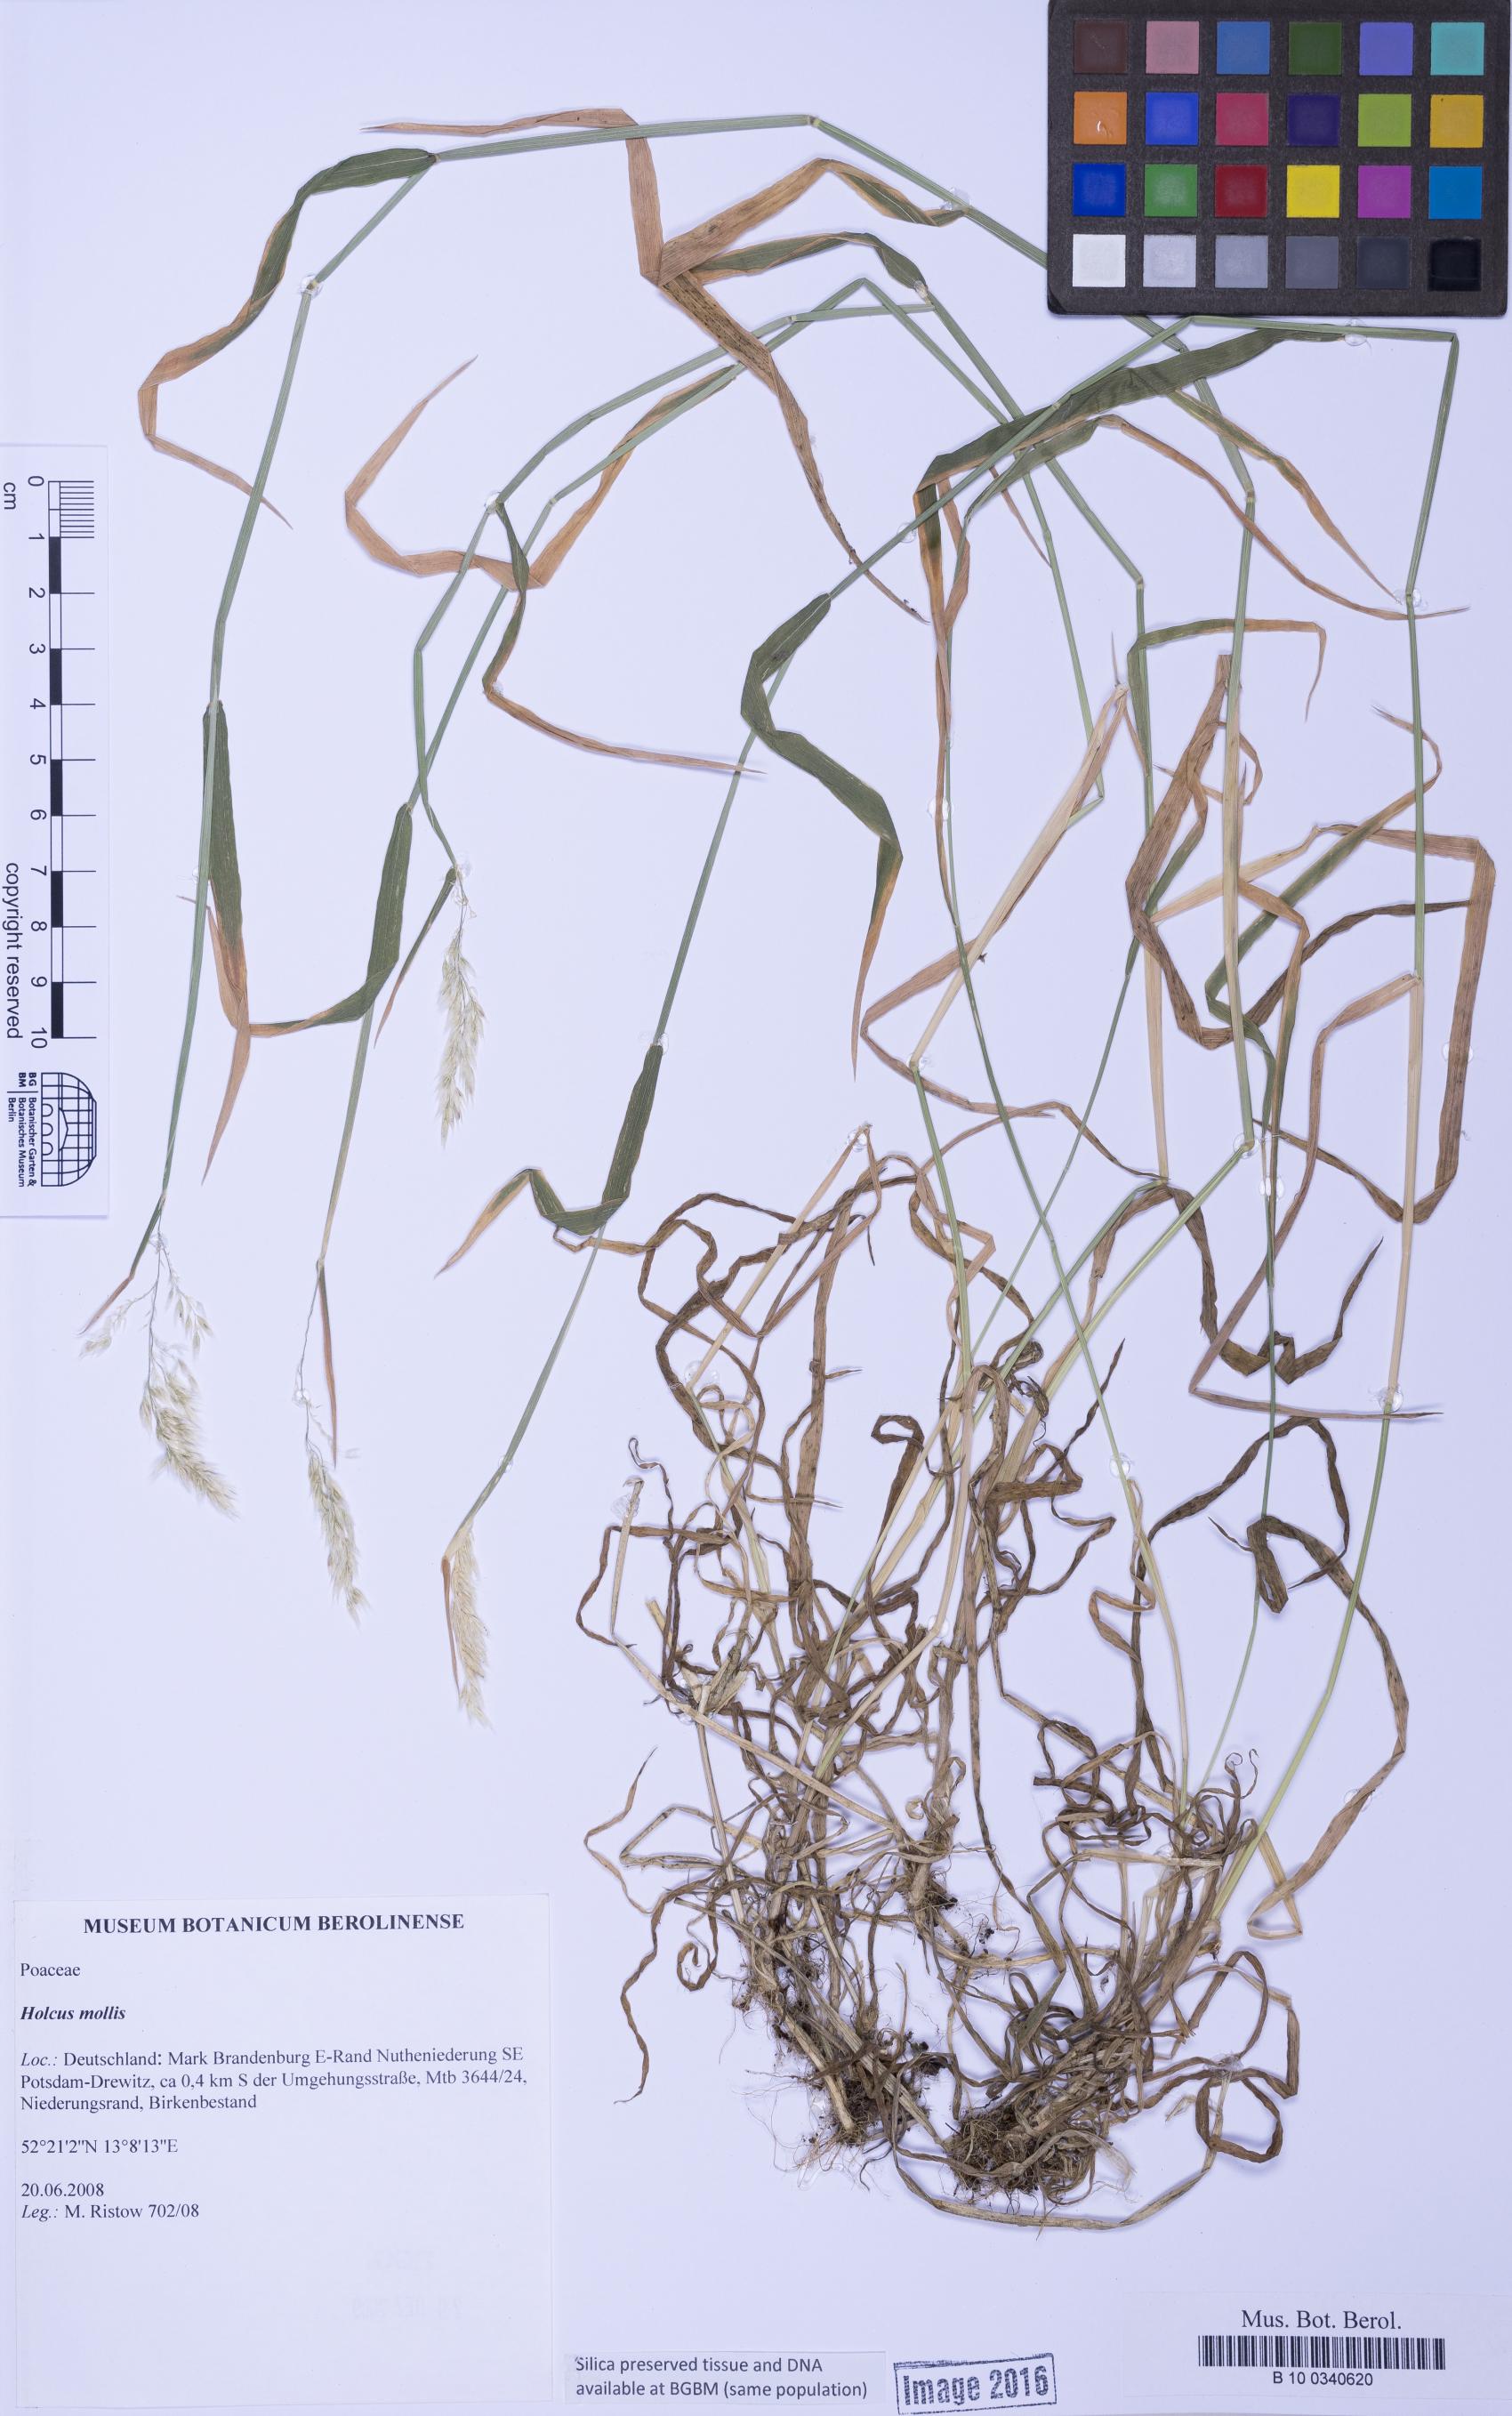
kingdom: Plantae
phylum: Tracheophyta
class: Liliopsida
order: Poales
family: Poaceae
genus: Holcus
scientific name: Holcus mollis
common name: Creeping velvetgrass
